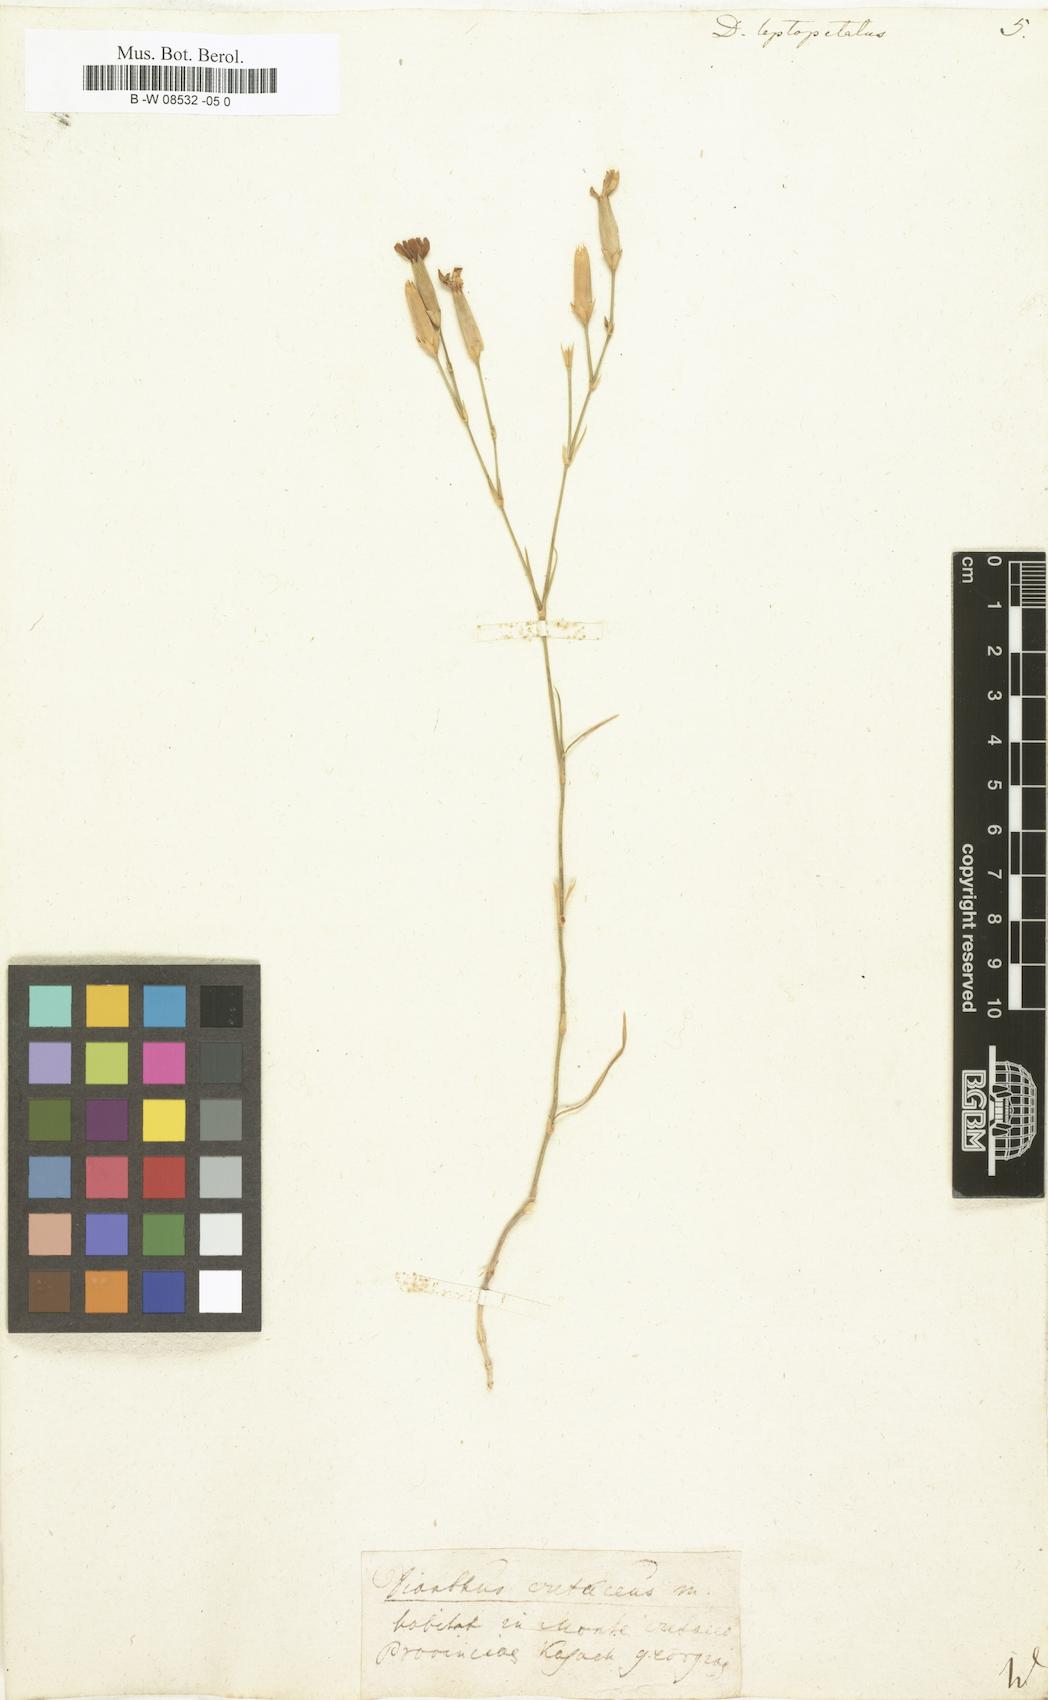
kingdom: Plantae
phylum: Tracheophyta
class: Magnoliopsida
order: Caryophyllales
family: Caryophyllaceae
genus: Dianthus
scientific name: Dianthus leptopetalus
